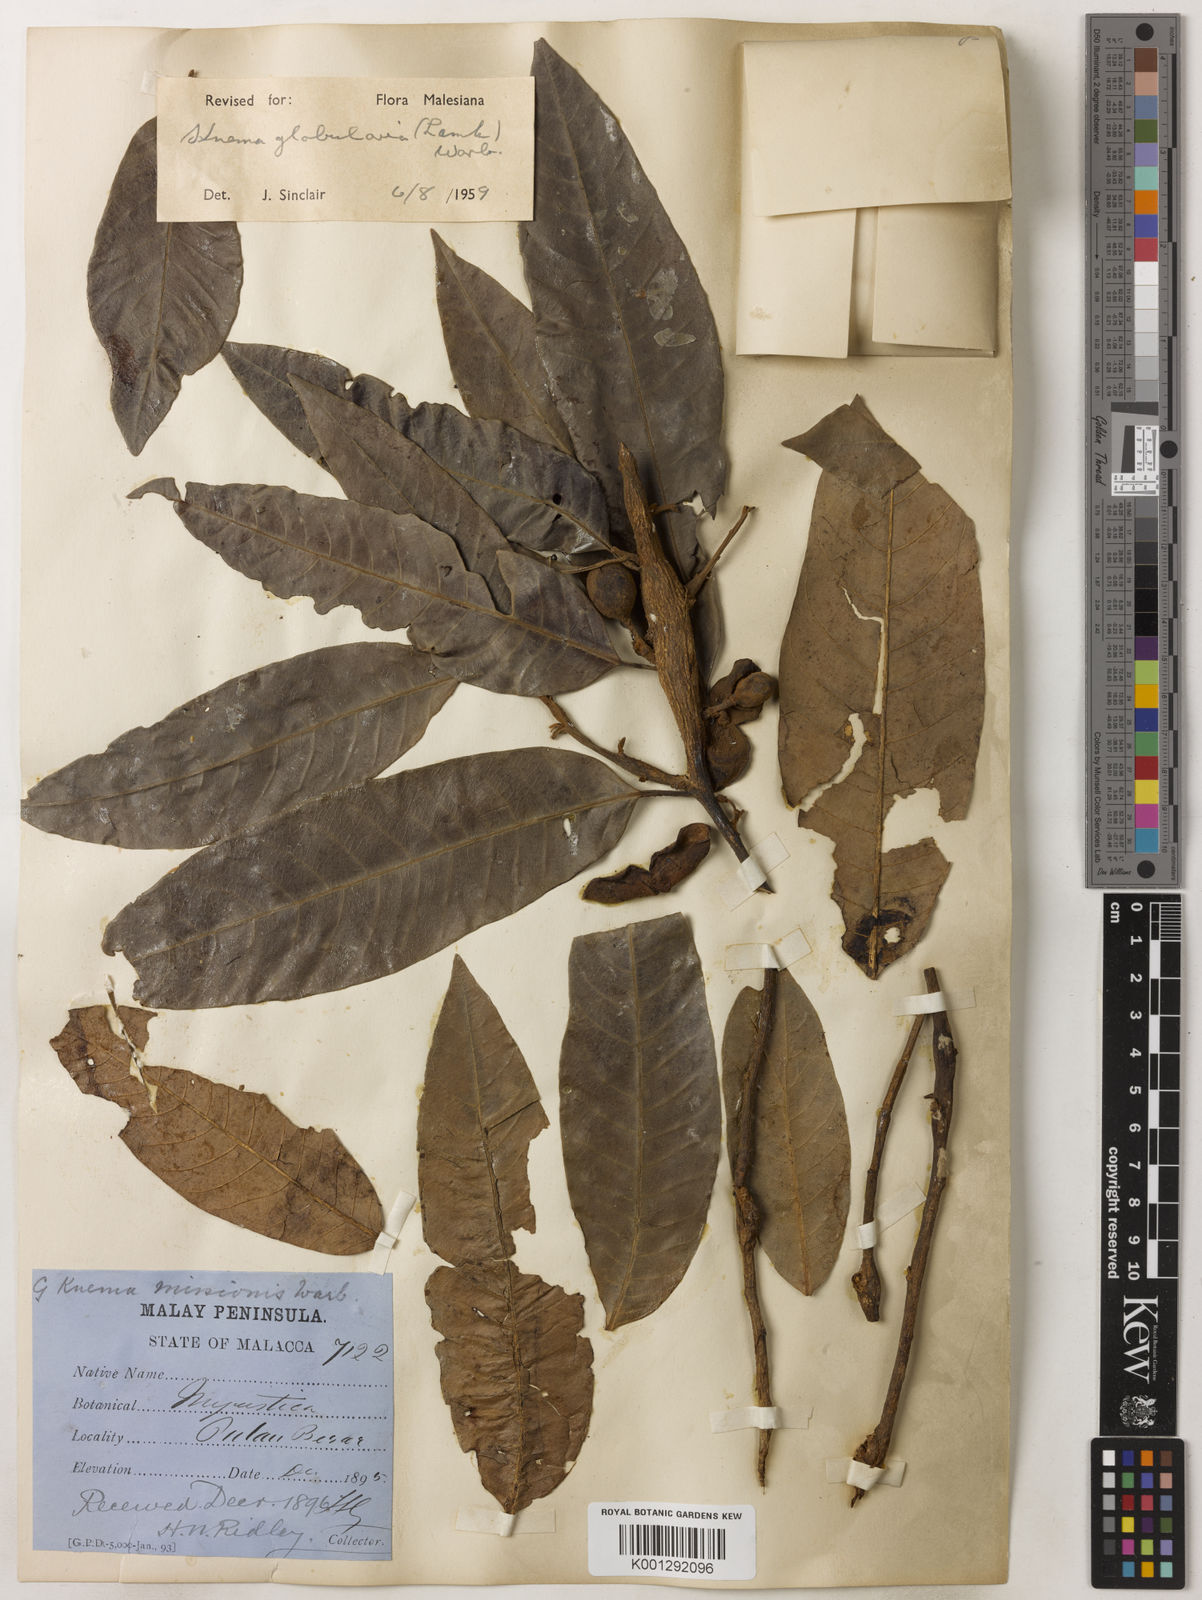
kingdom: Plantae
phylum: Tracheophyta
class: Magnoliopsida
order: Magnoliales
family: Myristicaceae
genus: Knema
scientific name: Knema globularia
